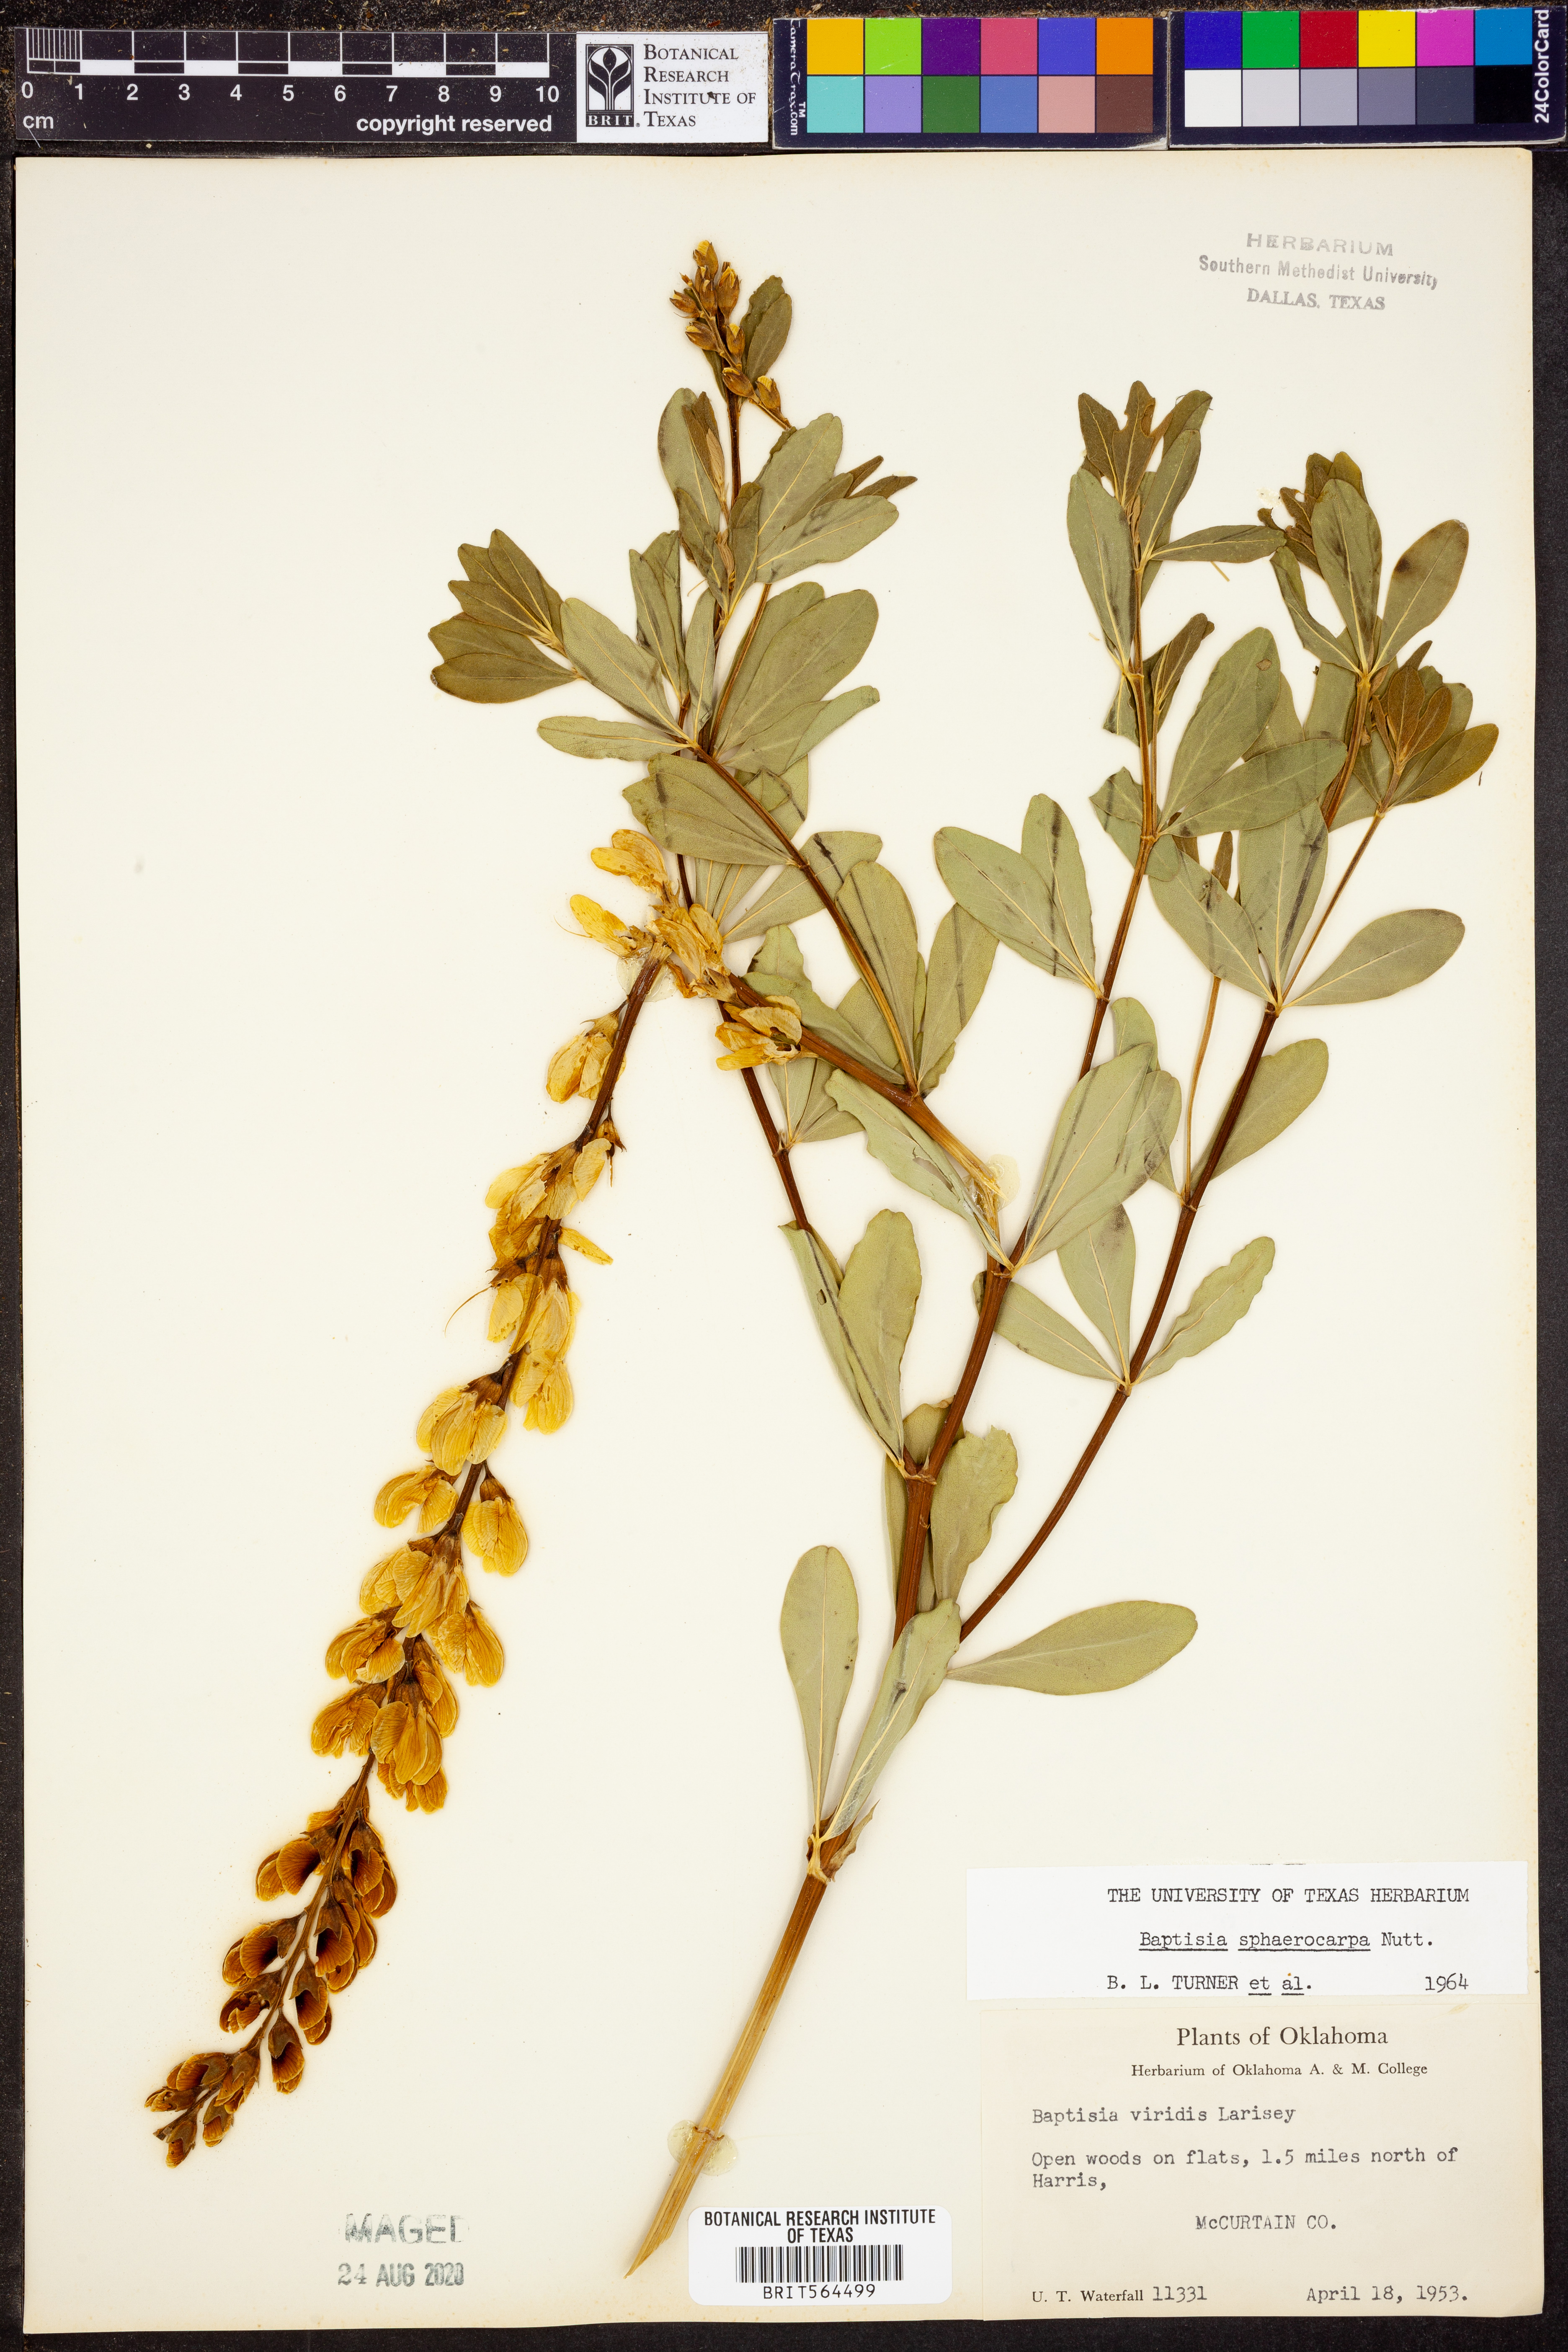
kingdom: Plantae
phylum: Tracheophyta
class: Magnoliopsida
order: Fabales
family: Fabaceae
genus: Baptisia
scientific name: Baptisia sphaerocarpa
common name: Round wild indigo
